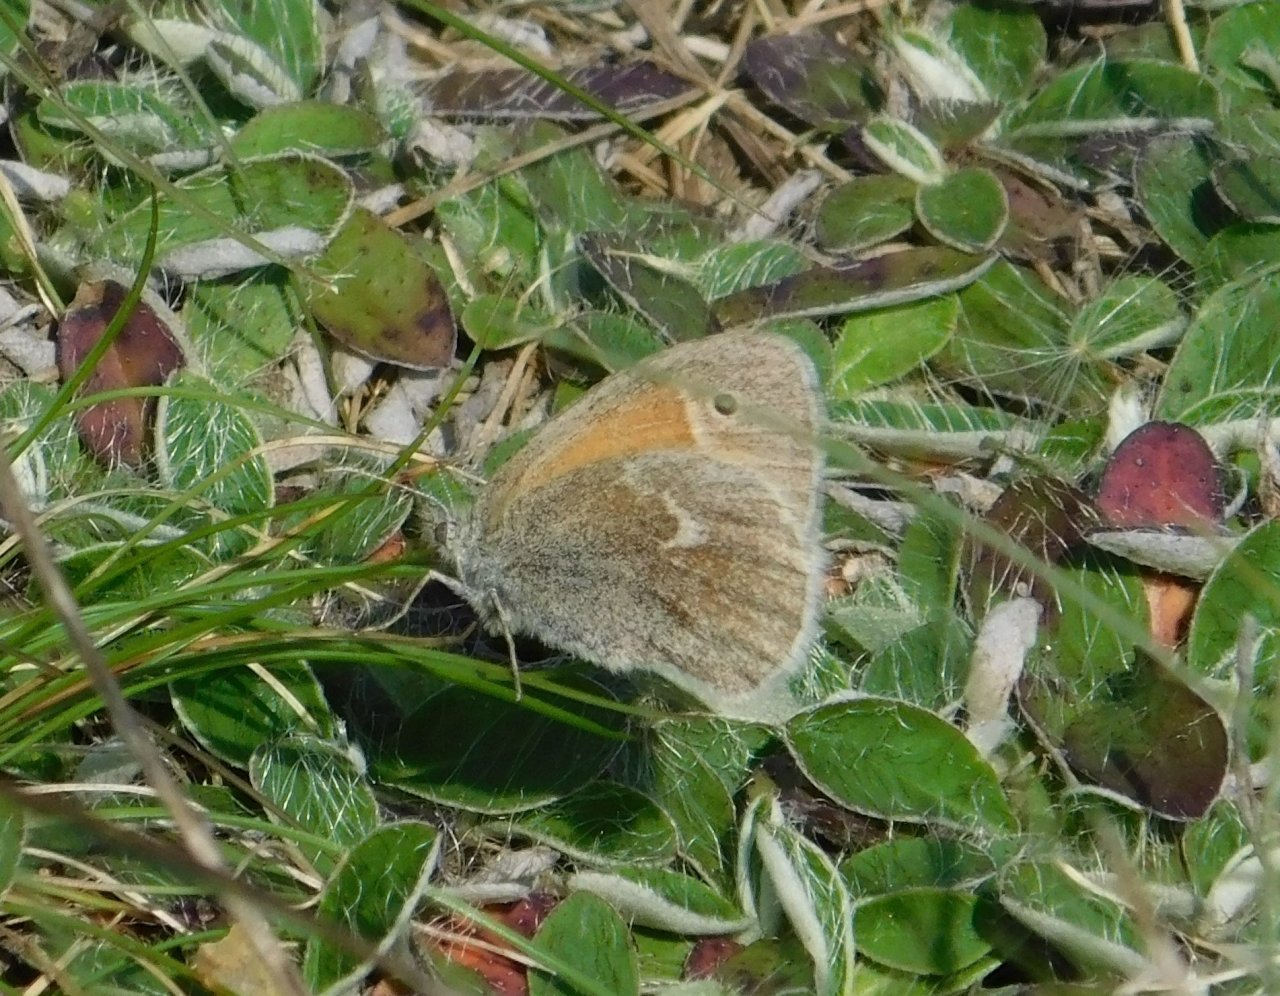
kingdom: Animalia
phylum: Arthropoda
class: Insecta
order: Lepidoptera
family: Nymphalidae
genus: Coenonympha
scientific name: Coenonympha tullia
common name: Large Heath
